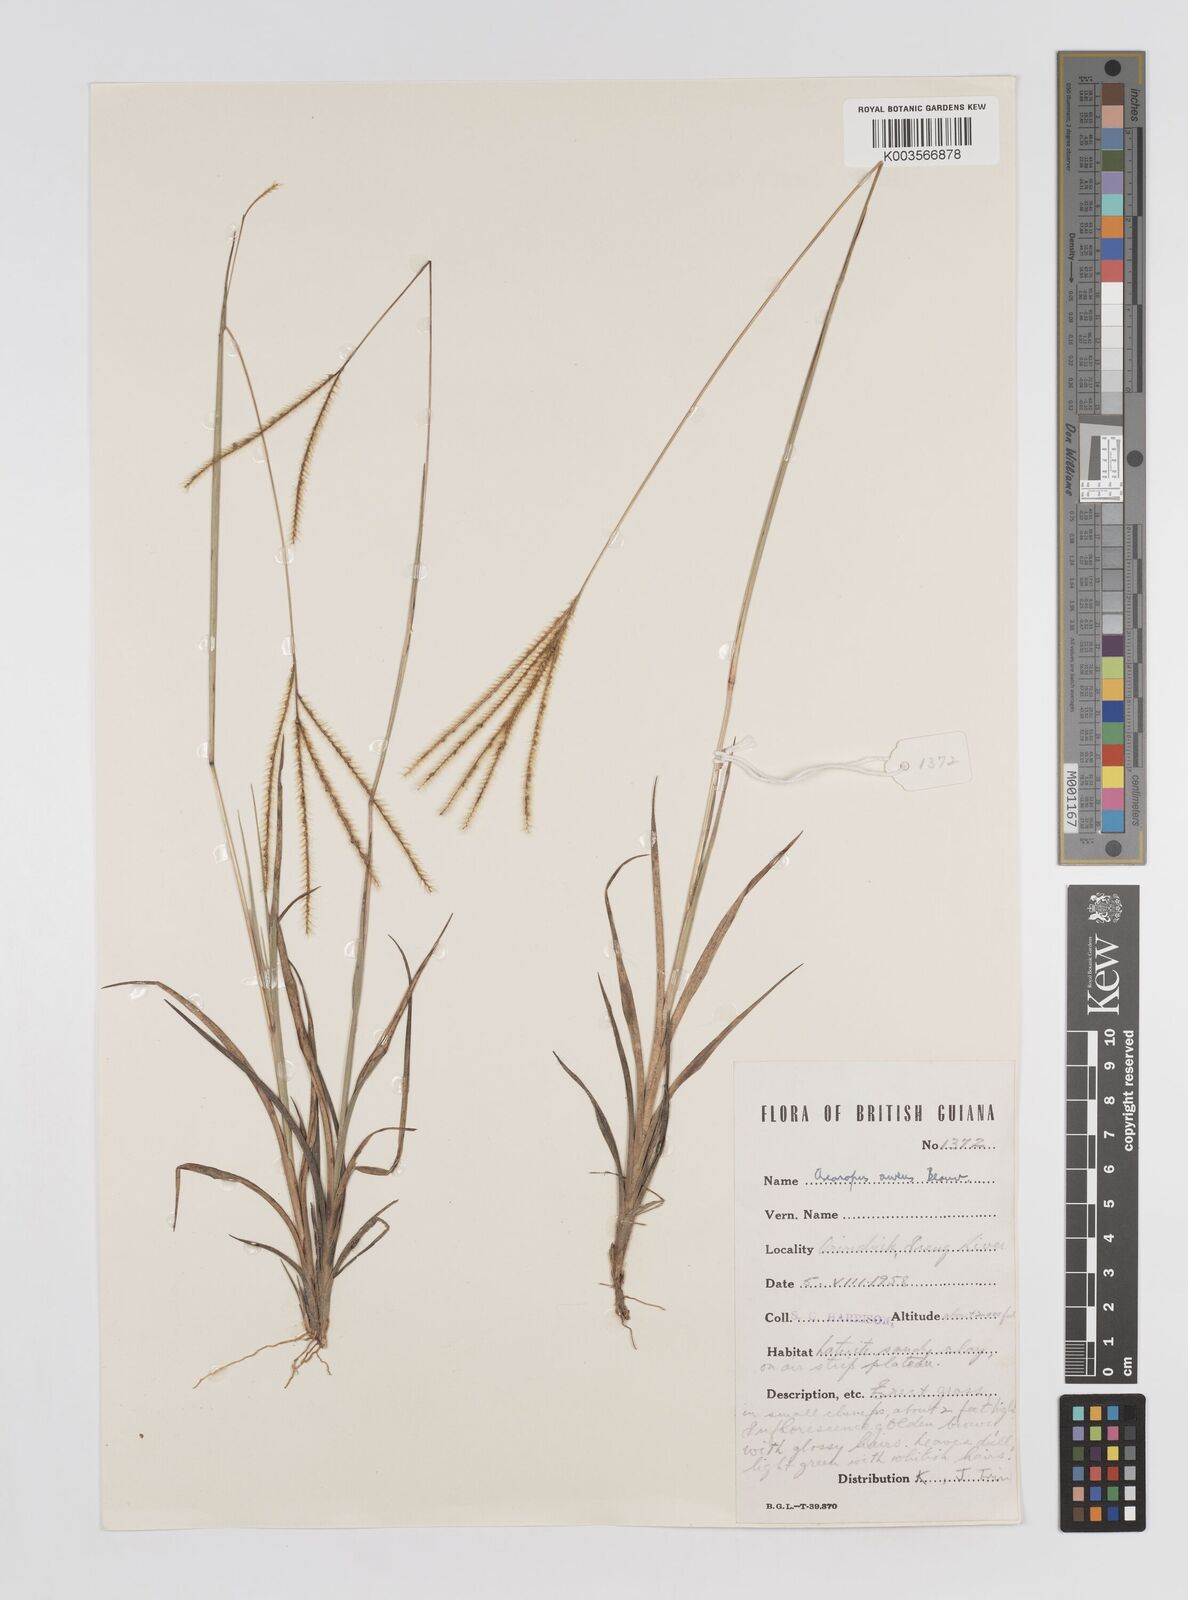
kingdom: Plantae
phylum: Tracheophyta
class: Liliopsida
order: Poales
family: Poaceae
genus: Axonopus
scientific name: Axonopus aureus
